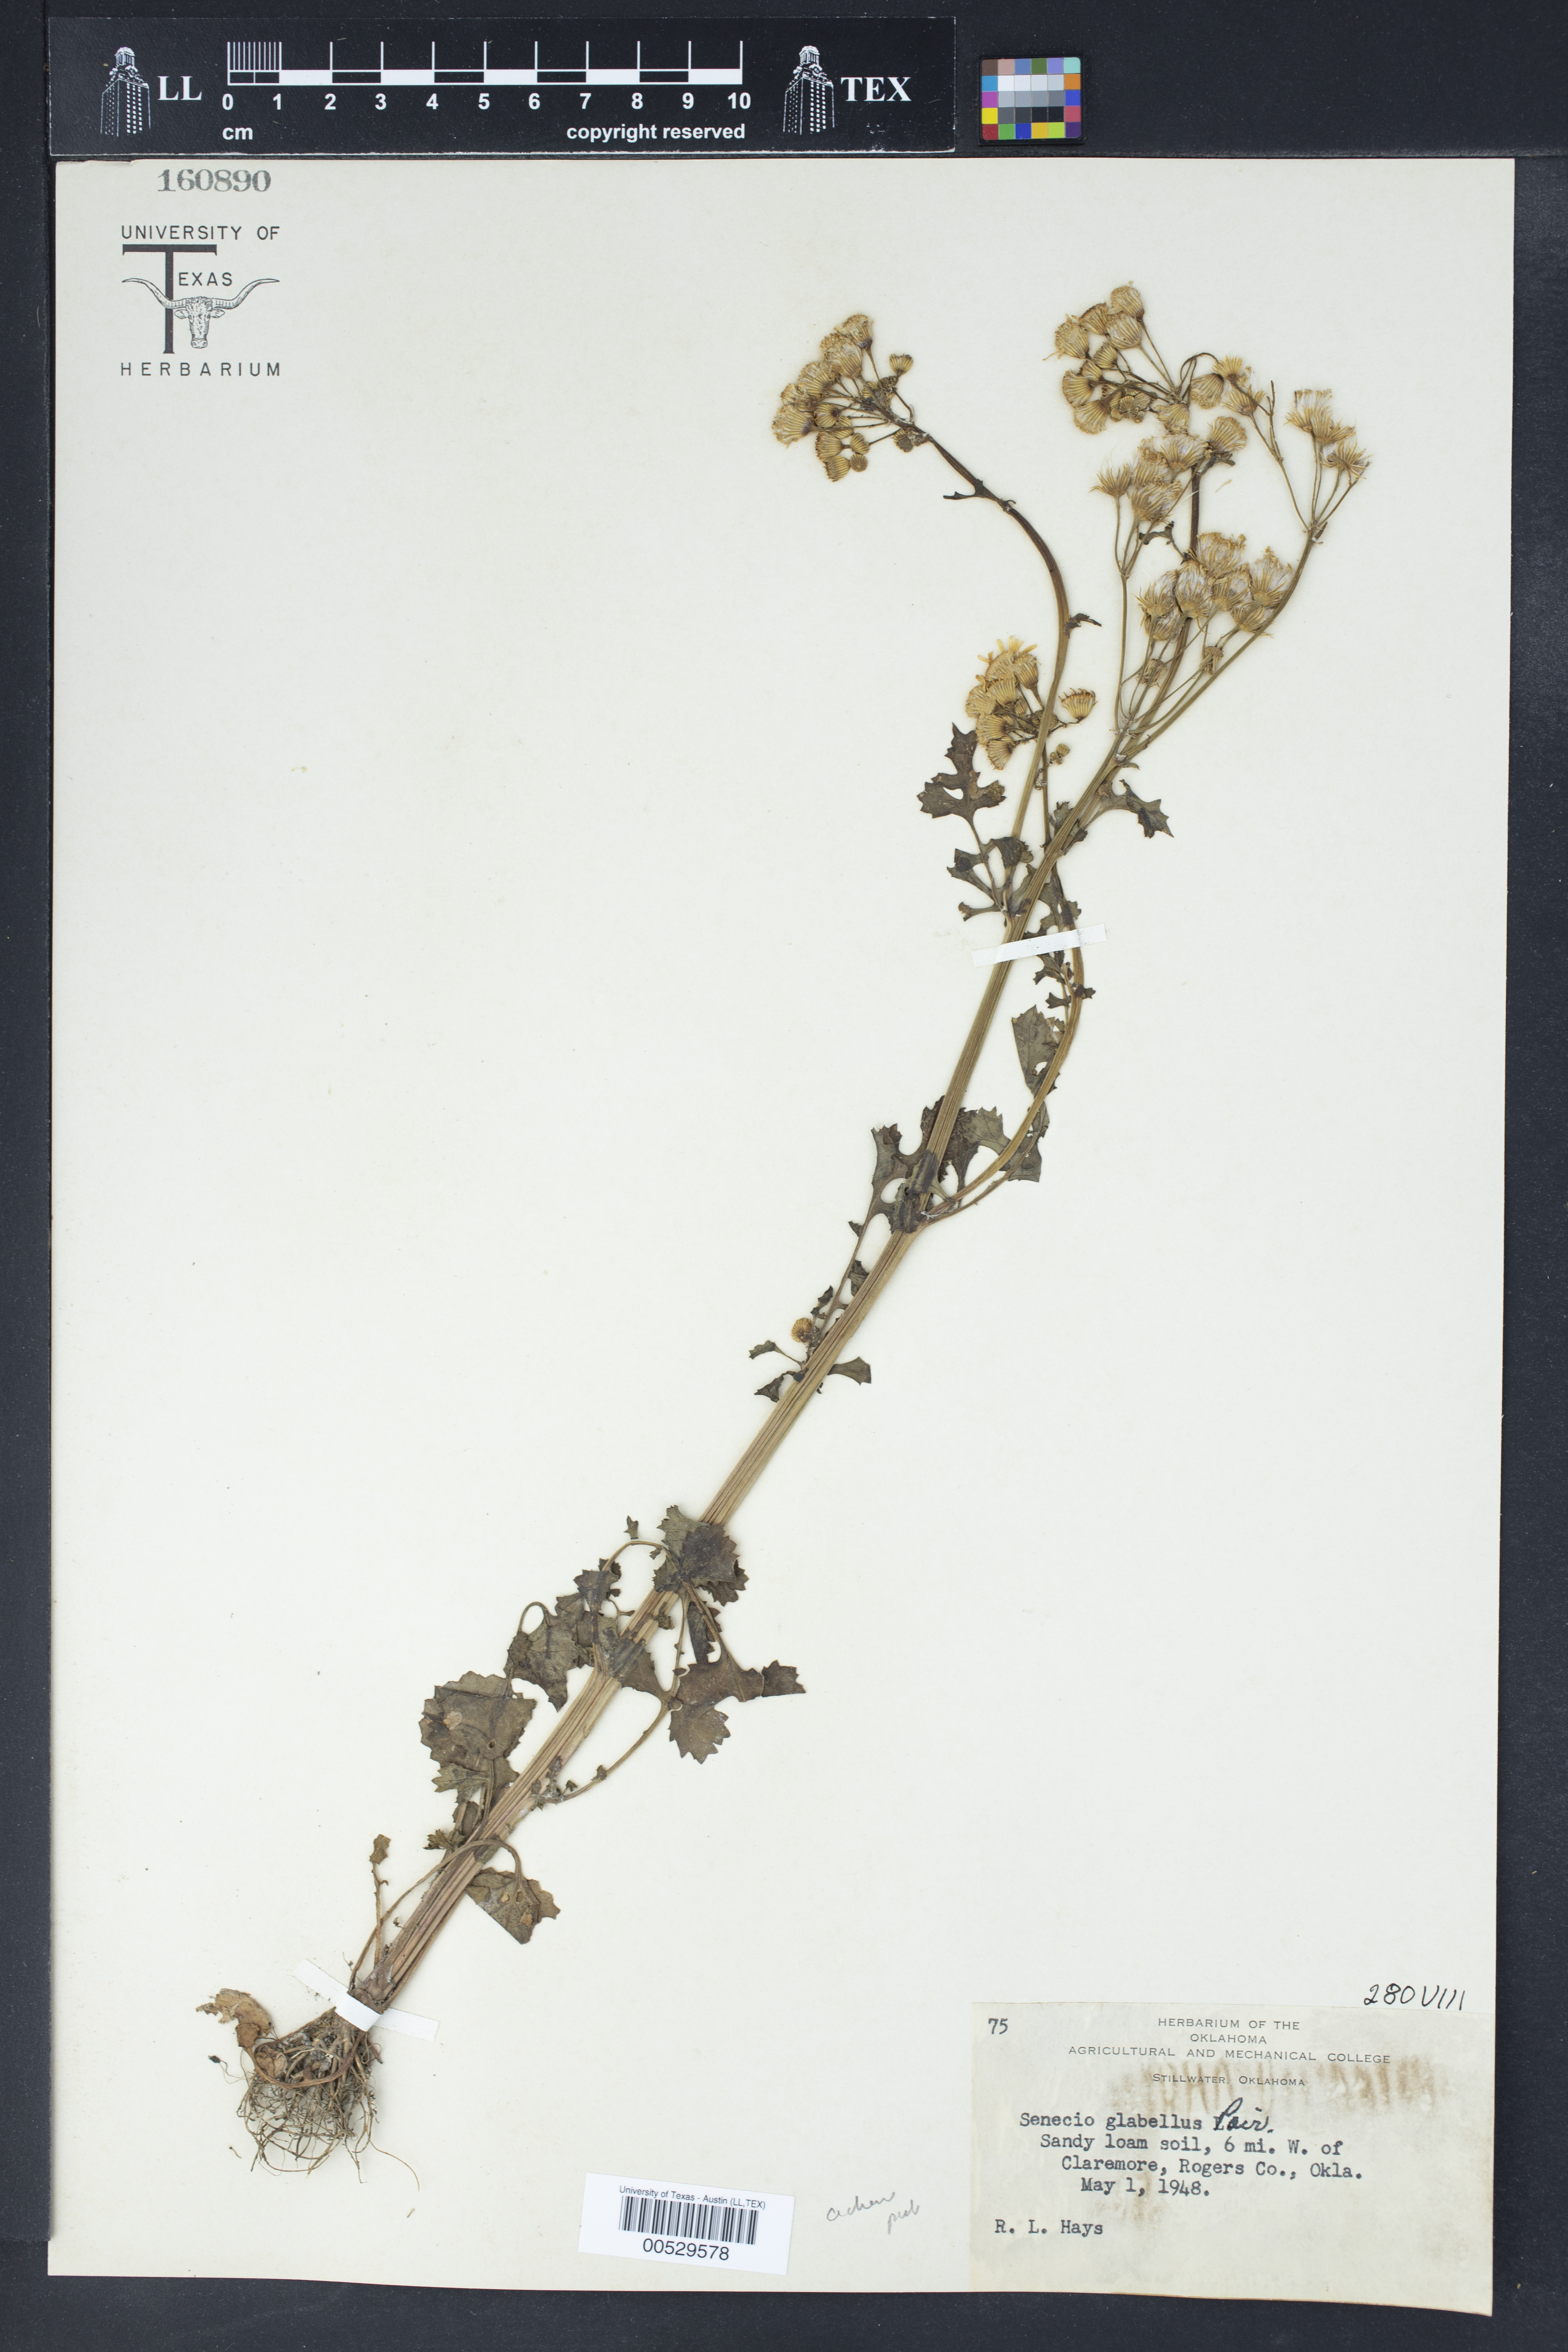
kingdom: Plantae
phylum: Tracheophyta
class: Magnoliopsida
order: Asterales
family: Asteraceae
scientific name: Asteraceae
